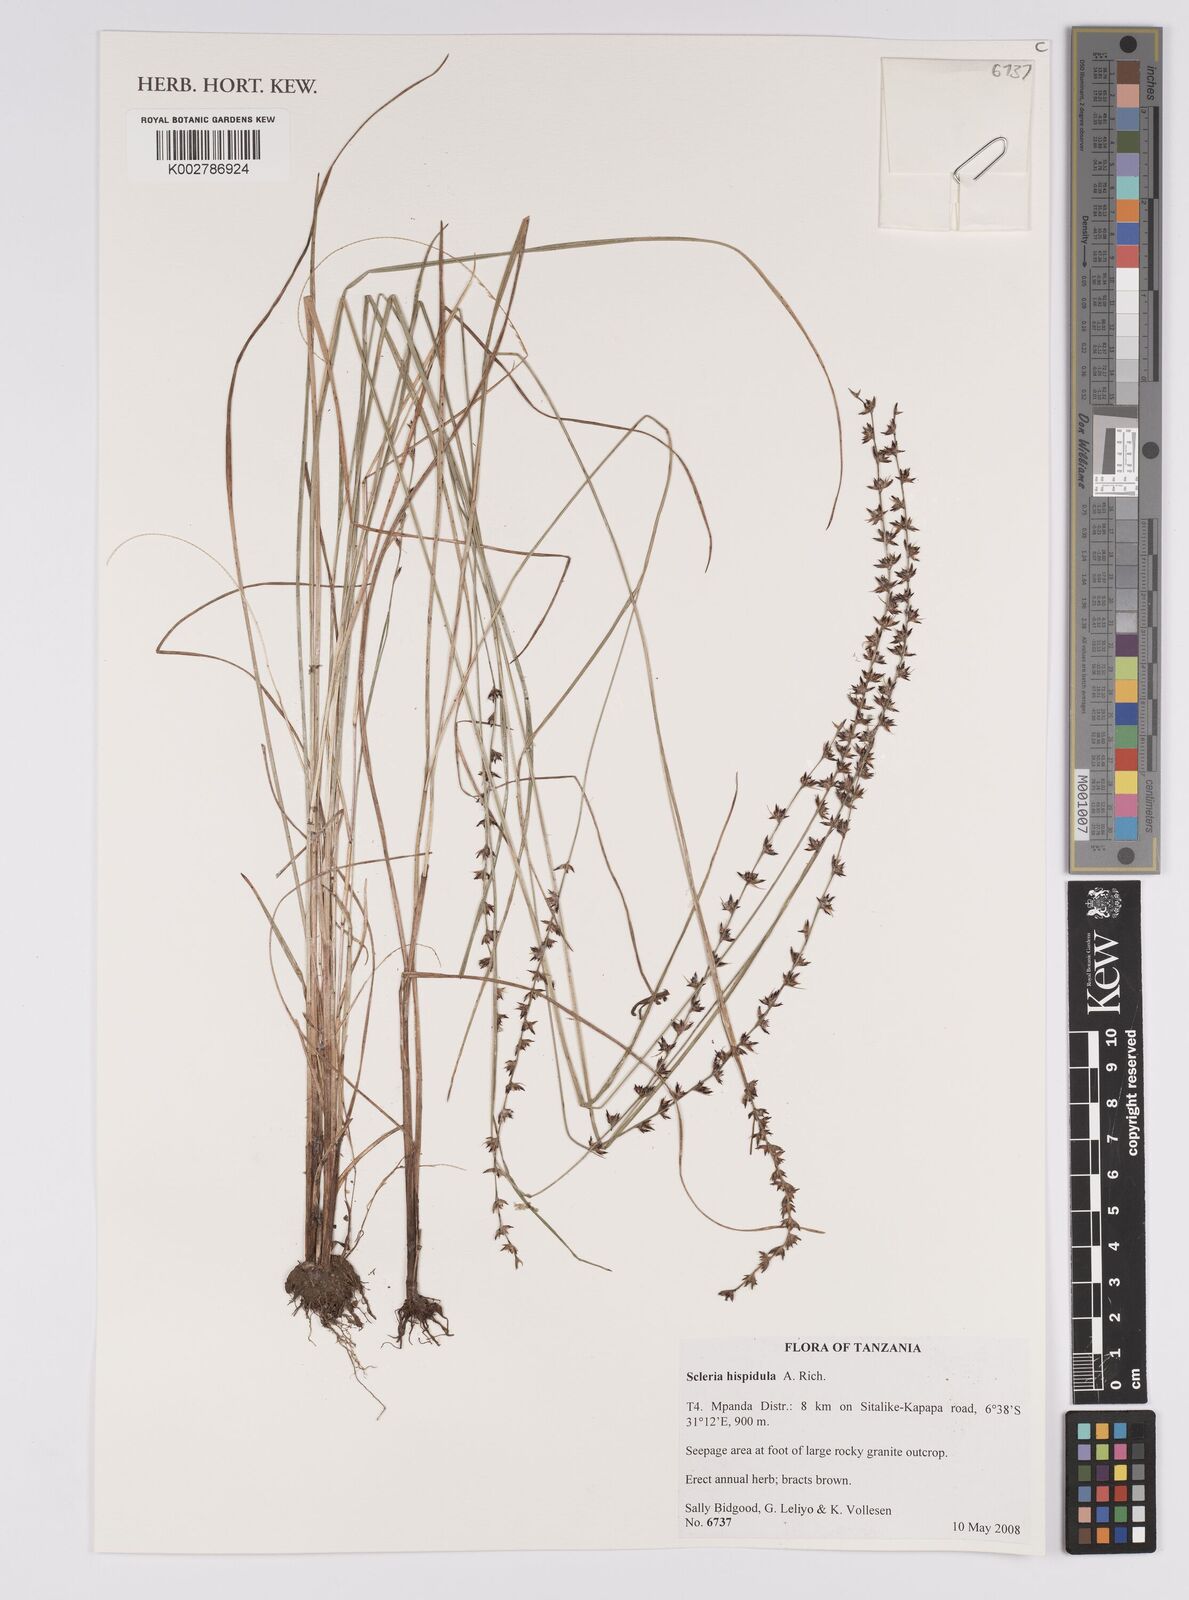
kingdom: Plantae
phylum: Tracheophyta
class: Liliopsida
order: Poales
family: Cyperaceae
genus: Scleria
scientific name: Scleria hispidula
